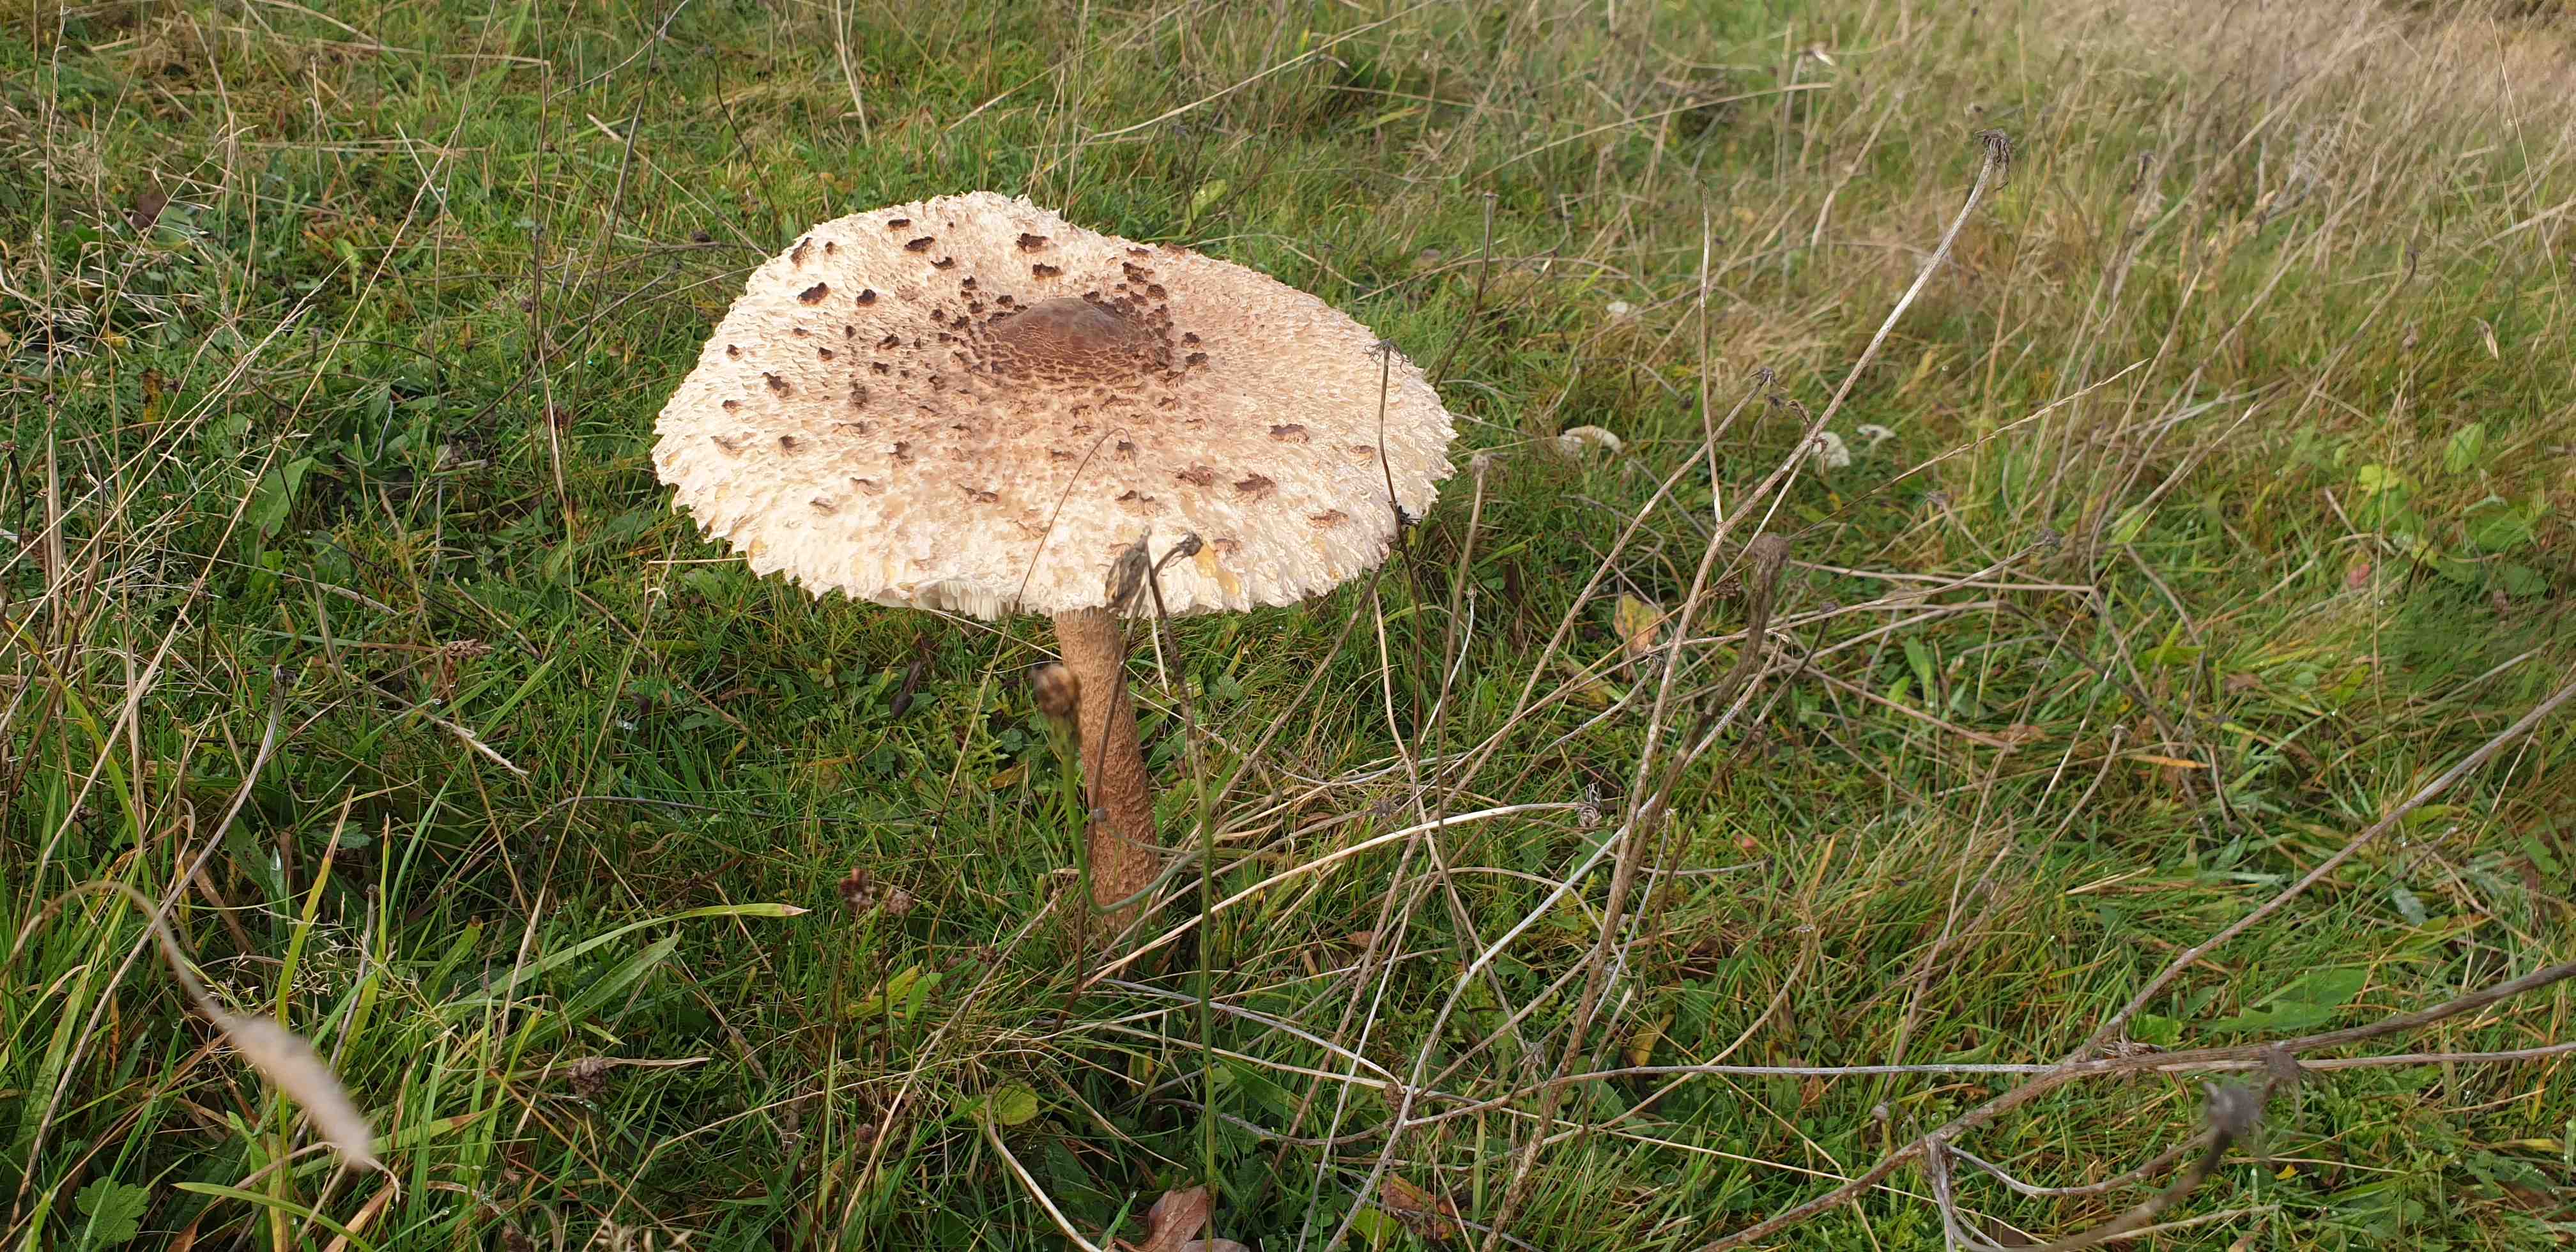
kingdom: Fungi
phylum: Basidiomycota
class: Agaricomycetes
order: Agaricales
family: Agaricaceae
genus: Macrolepiota
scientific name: Macrolepiota procera
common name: stor kæmpeparasolhat
